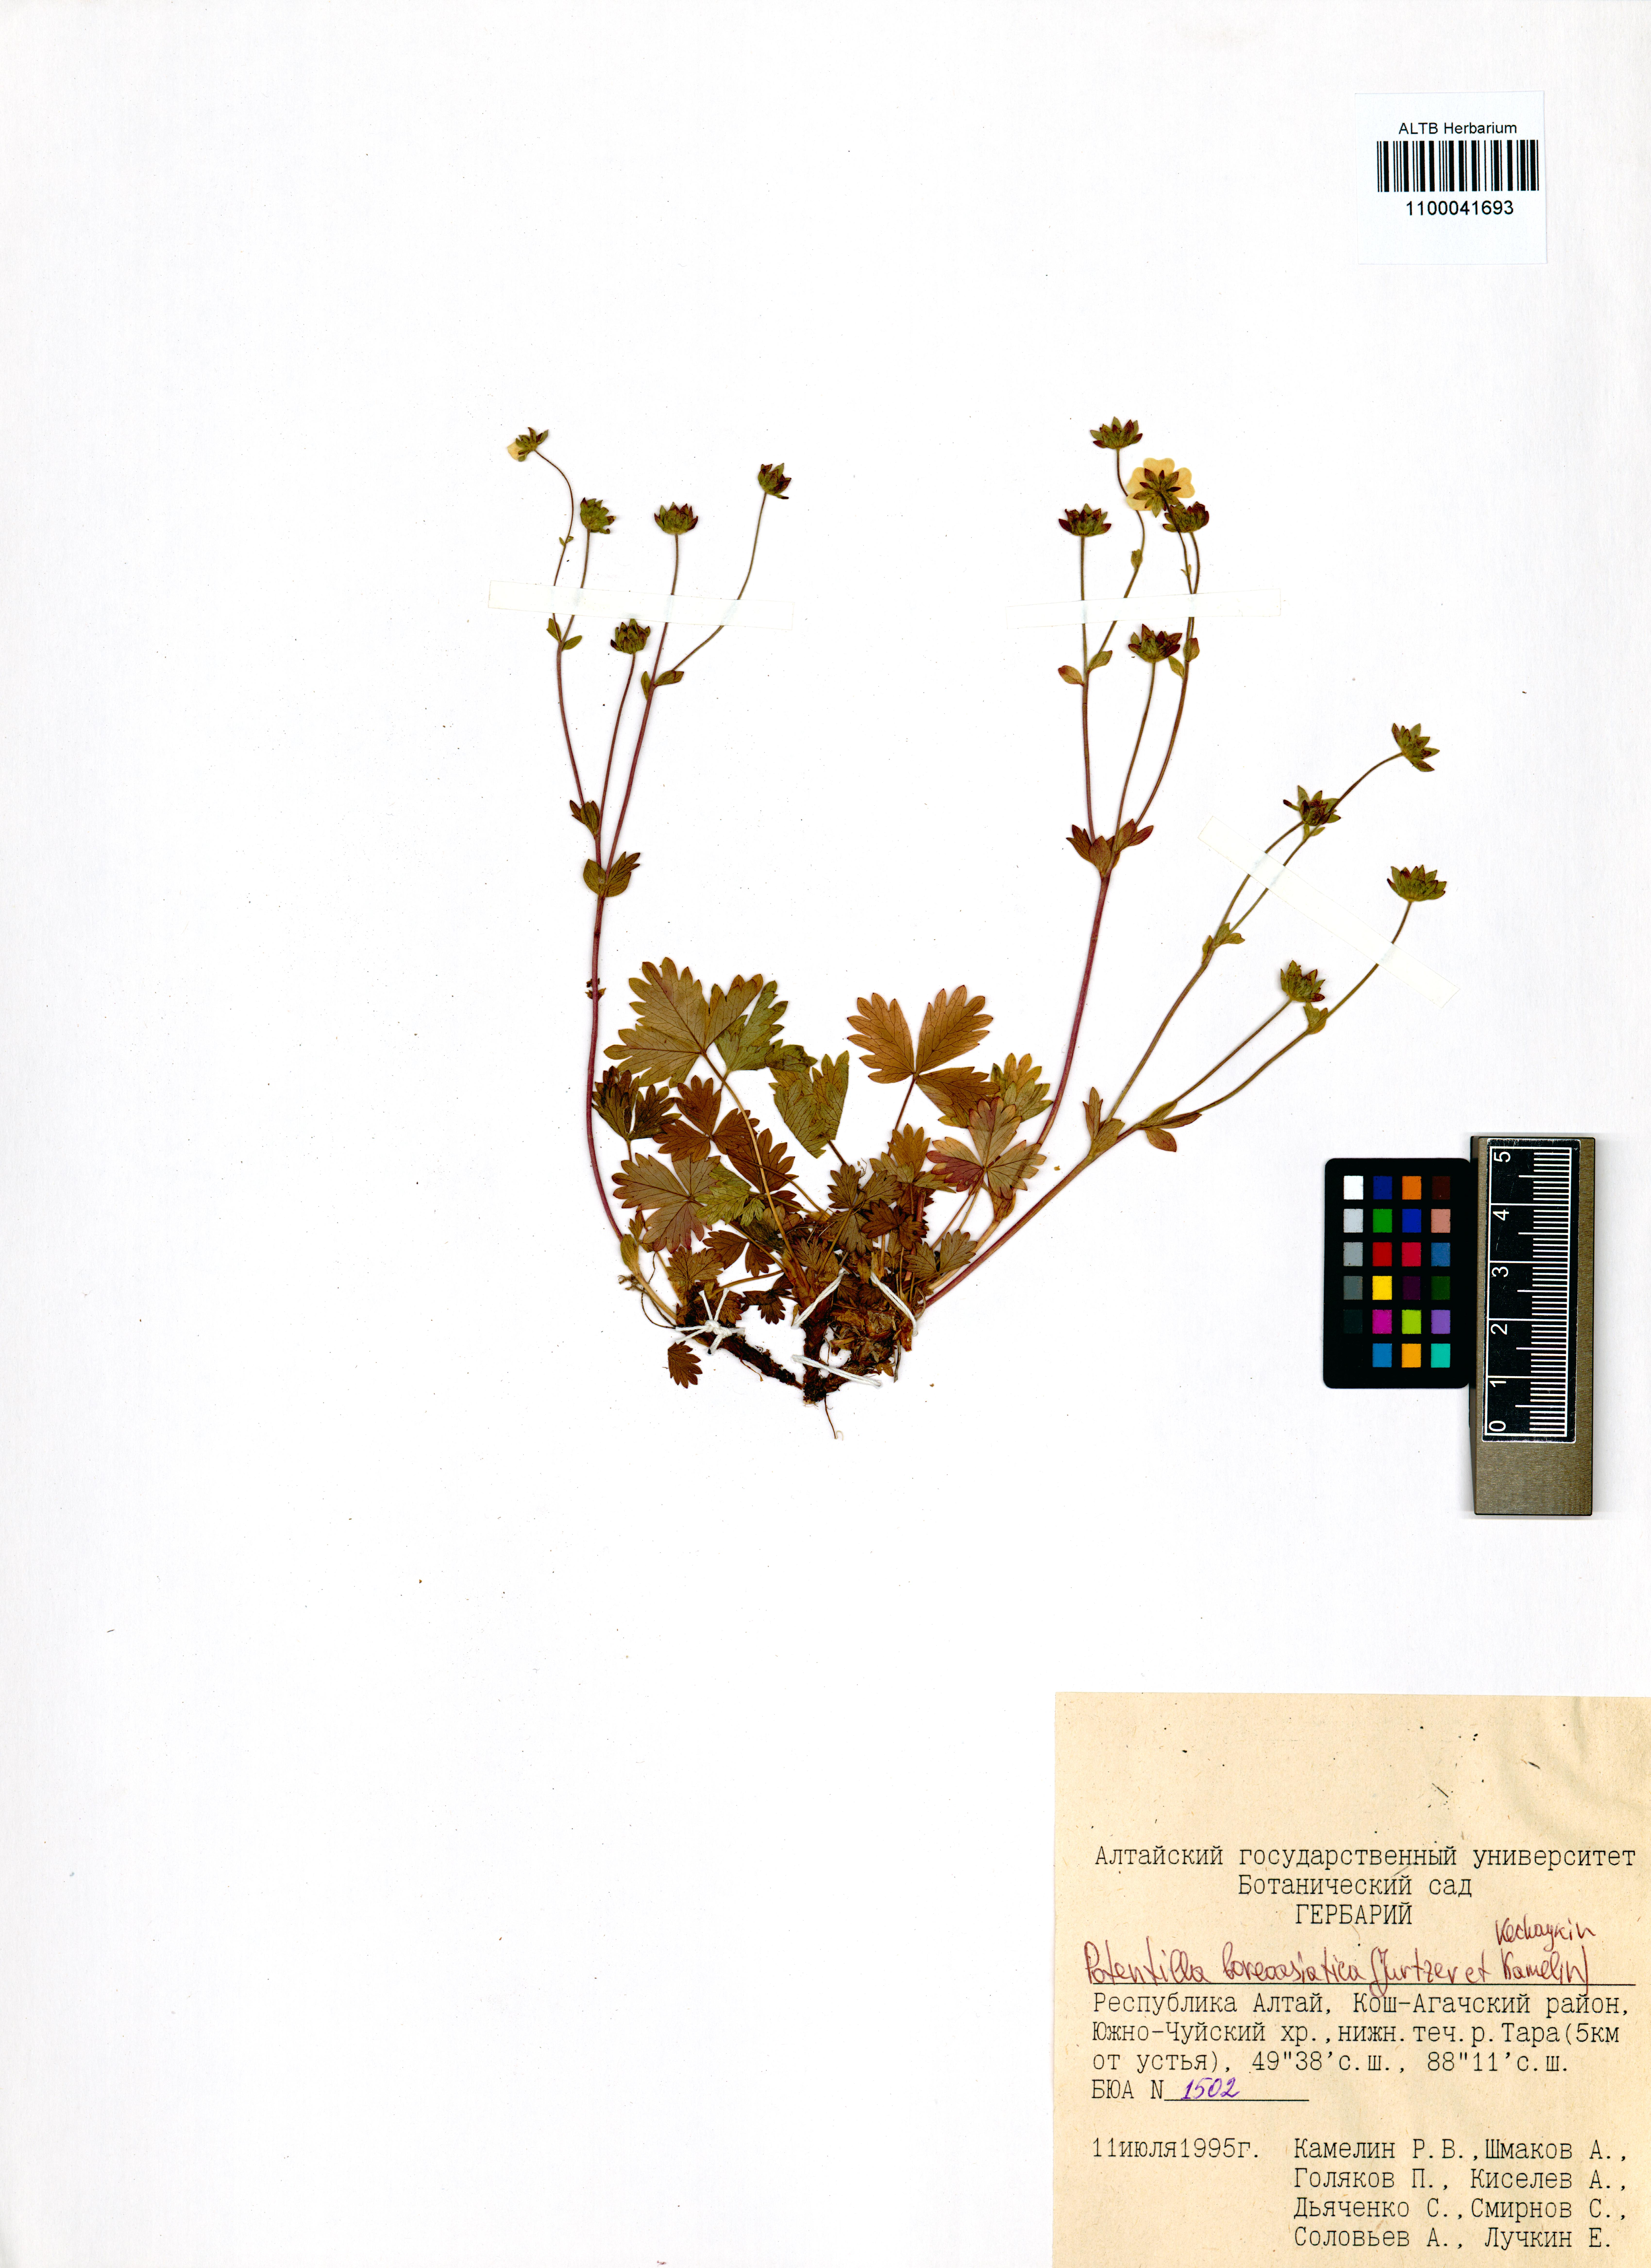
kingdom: Plantae
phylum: Tracheophyta
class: Magnoliopsida
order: Rosales
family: Rosaceae
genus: Potentilla
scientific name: Potentilla
